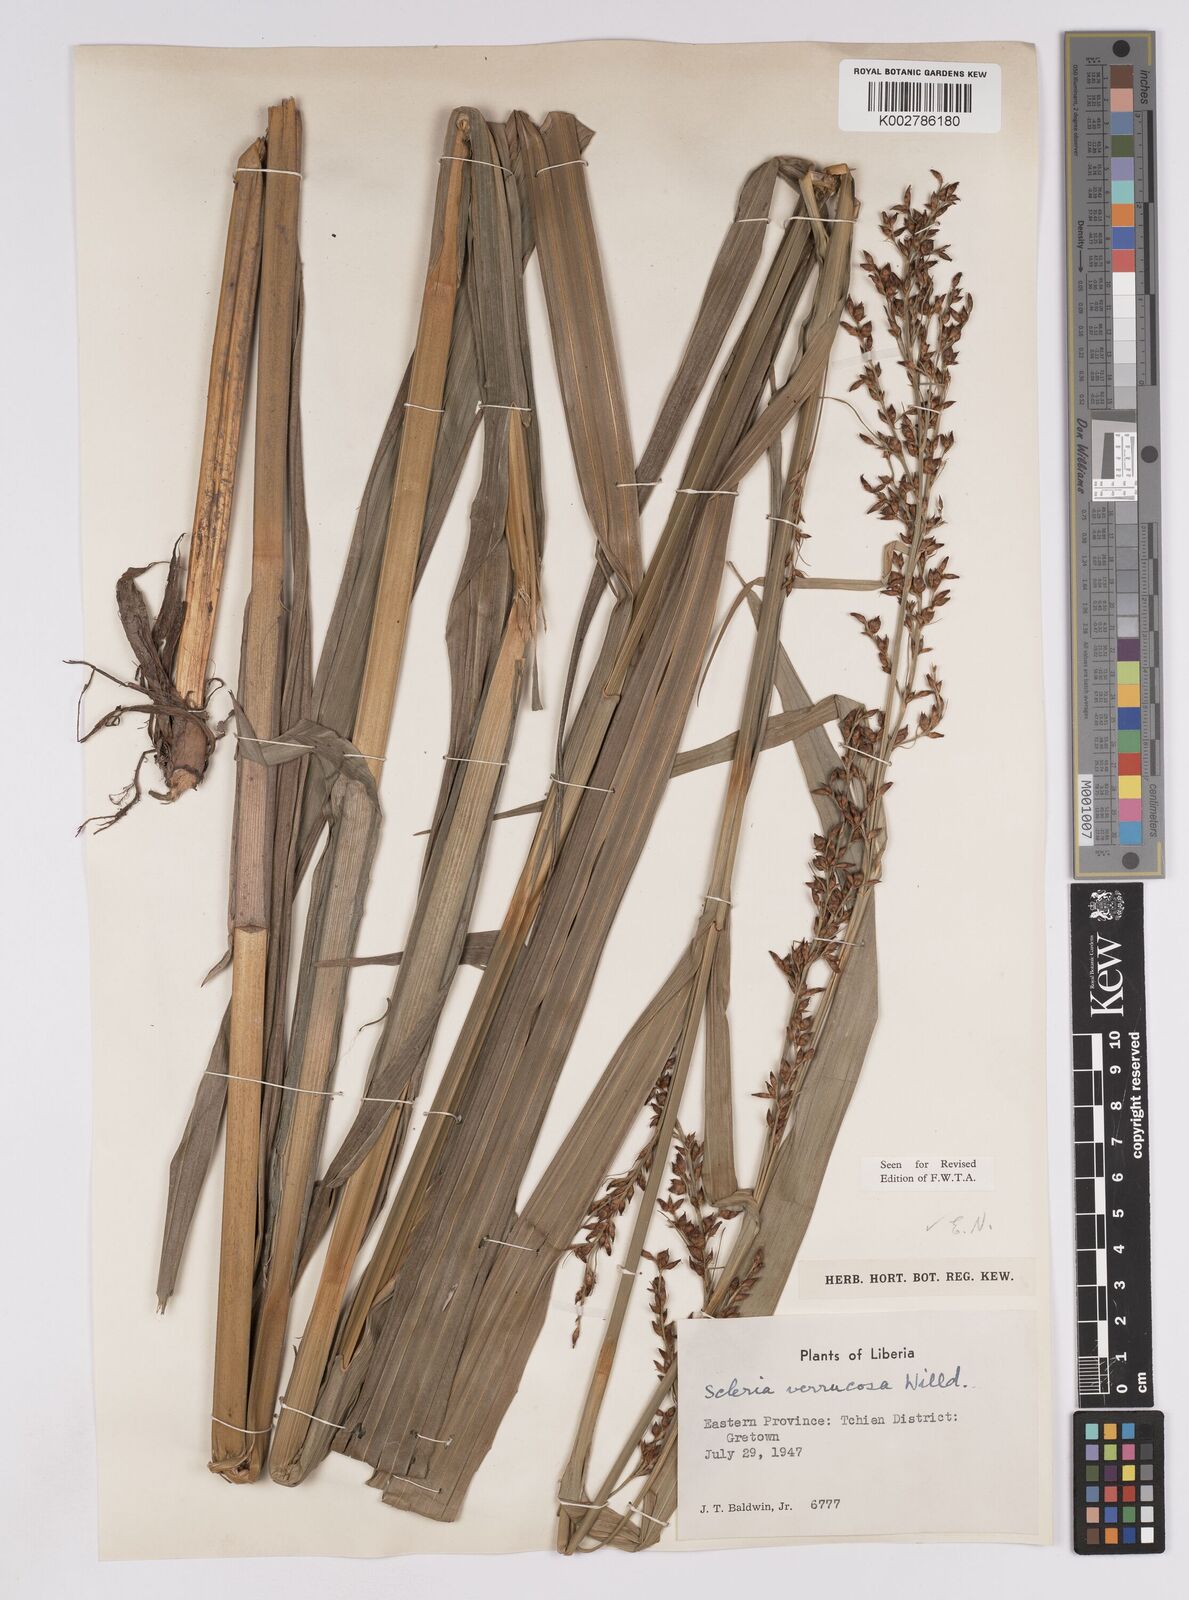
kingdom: Plantae
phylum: Tracheophyta
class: Liliopsida
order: Poales
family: Cyperaceae
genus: Scleria
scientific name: Scleria verrucosa
